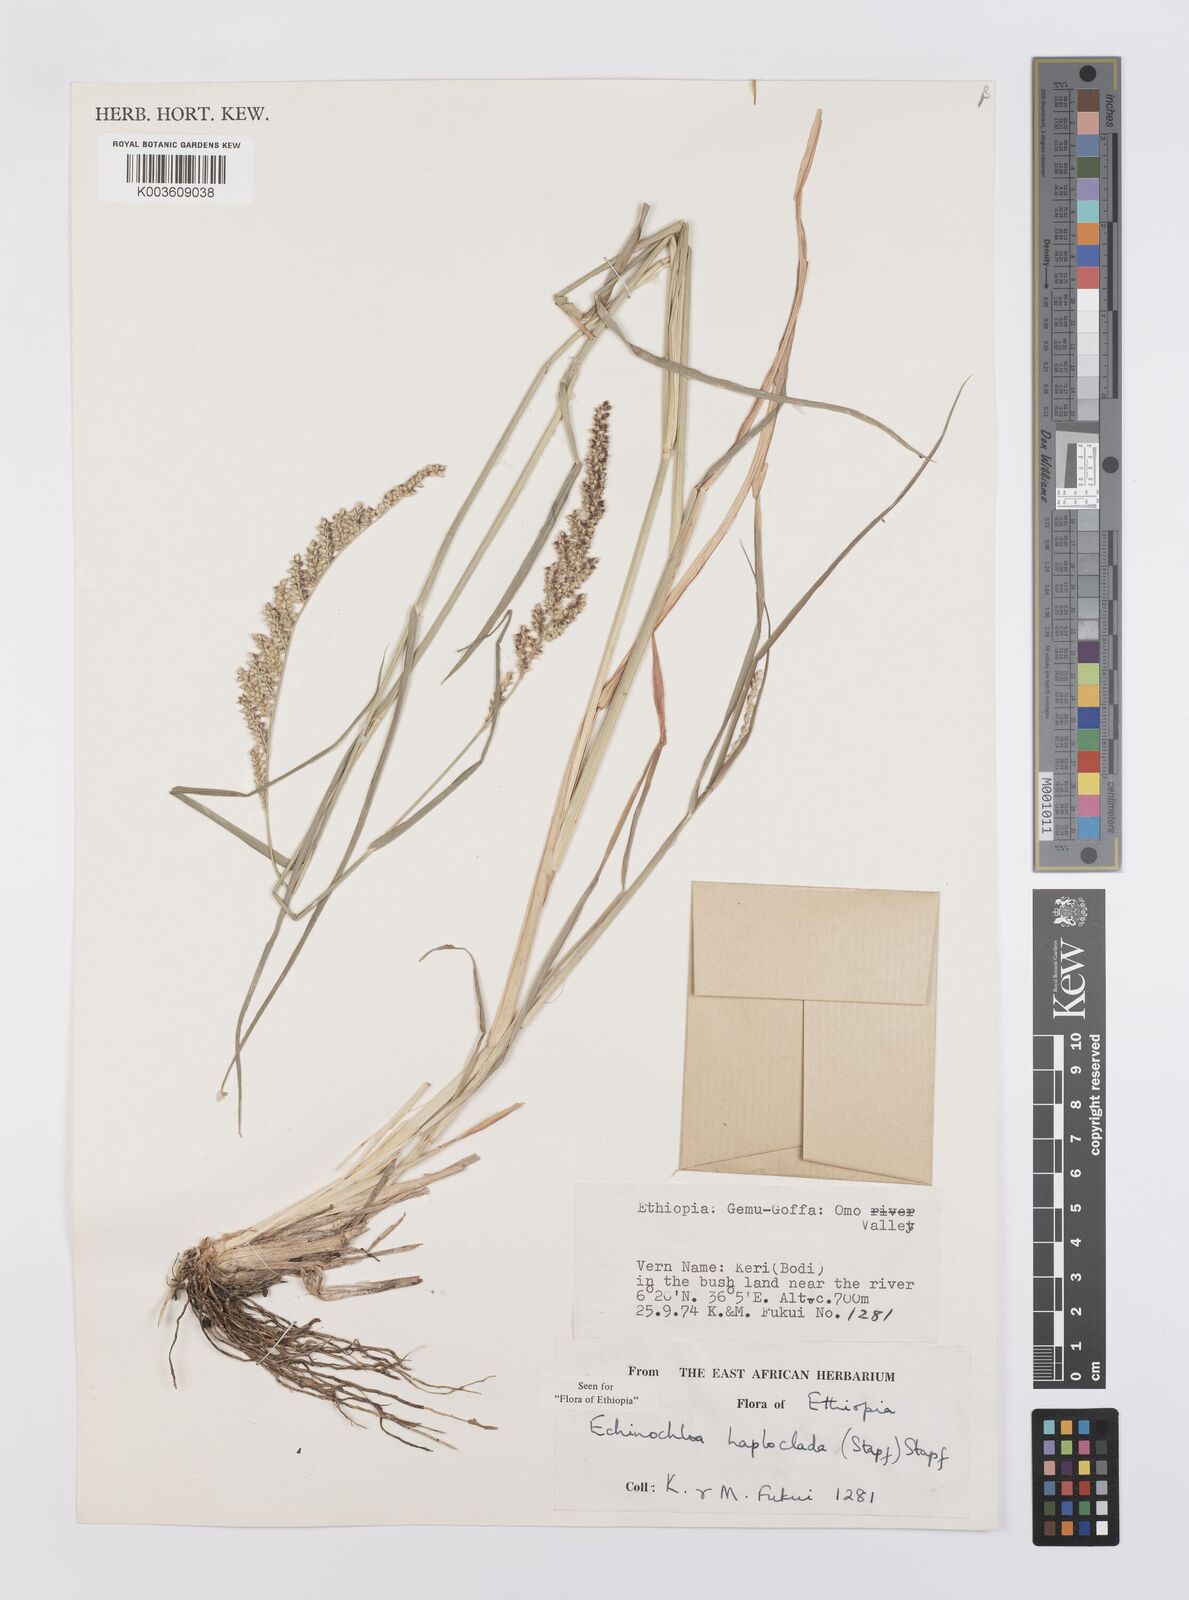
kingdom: Plantae
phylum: Tracheophyta
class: Liliopsida
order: Poales
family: Poaceae
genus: Echinochloa
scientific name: Echinochloa haploclada
